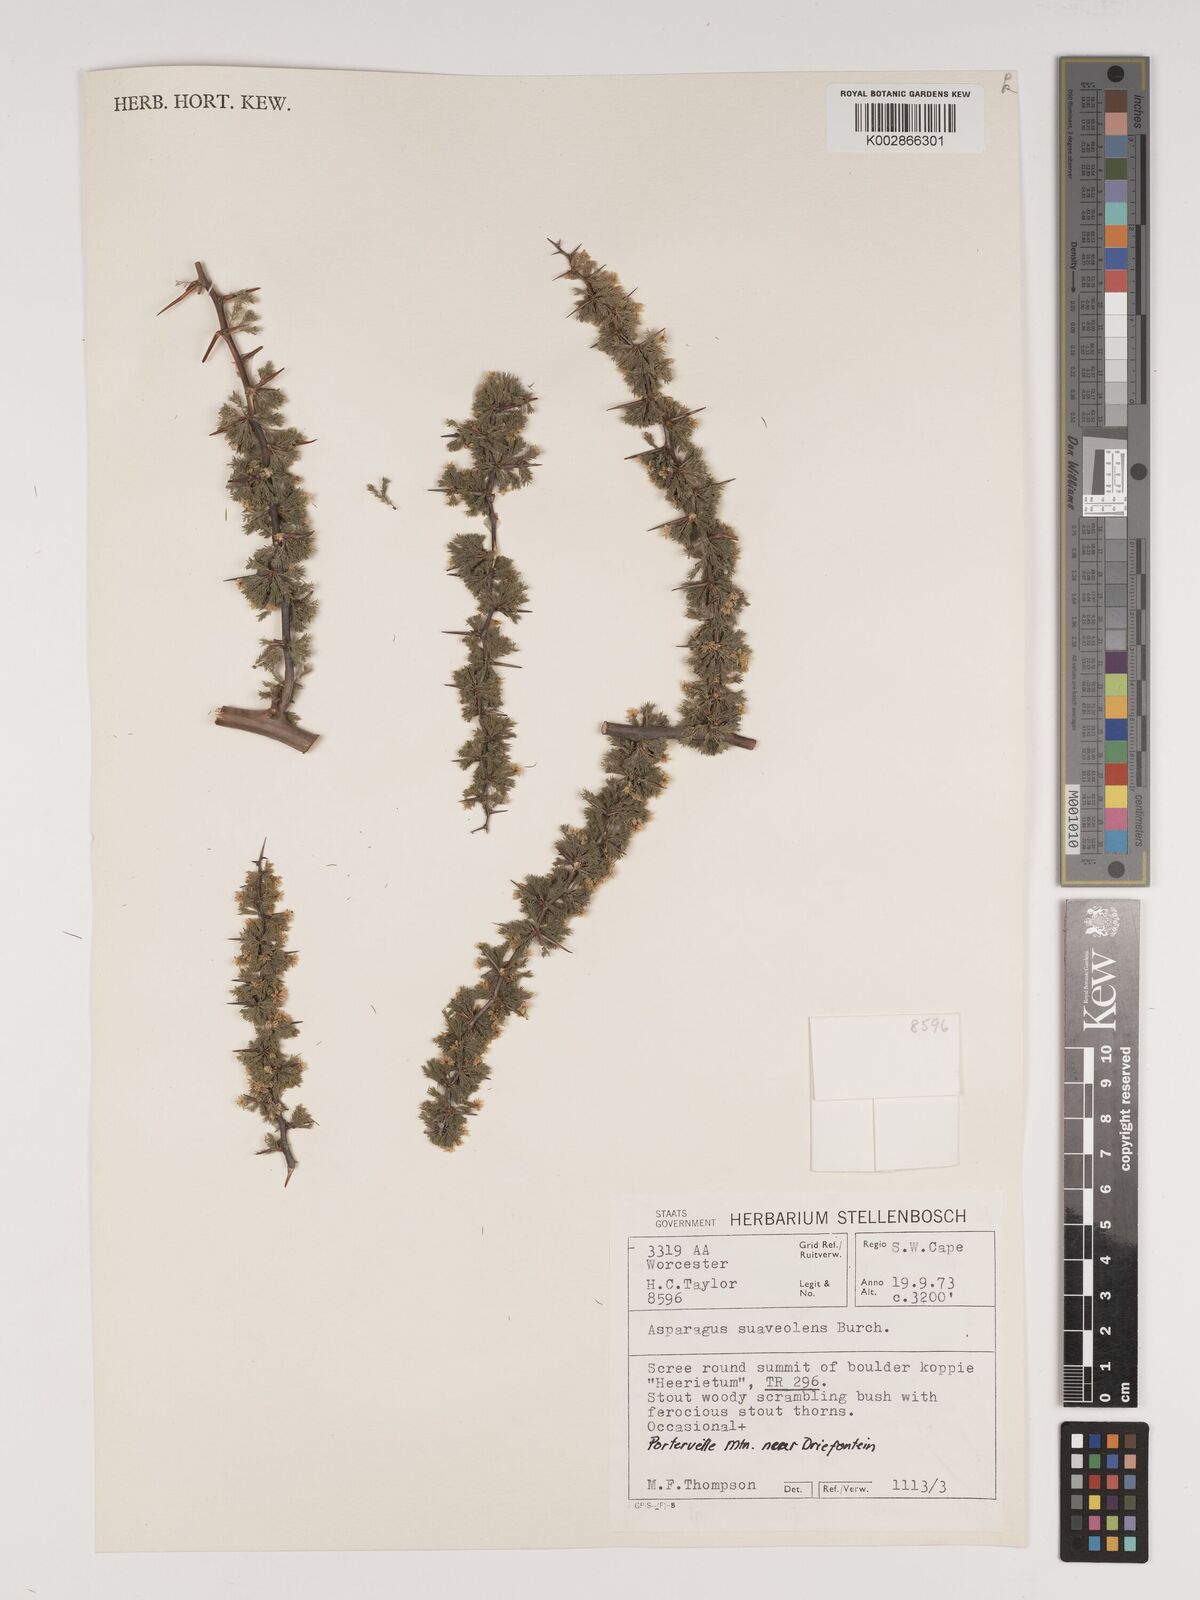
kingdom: Plantae
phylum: Tracheophyta
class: Liliopsida
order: Asparagales
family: Asparagaceae
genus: Asparagus
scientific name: Asparagus suaveolens
